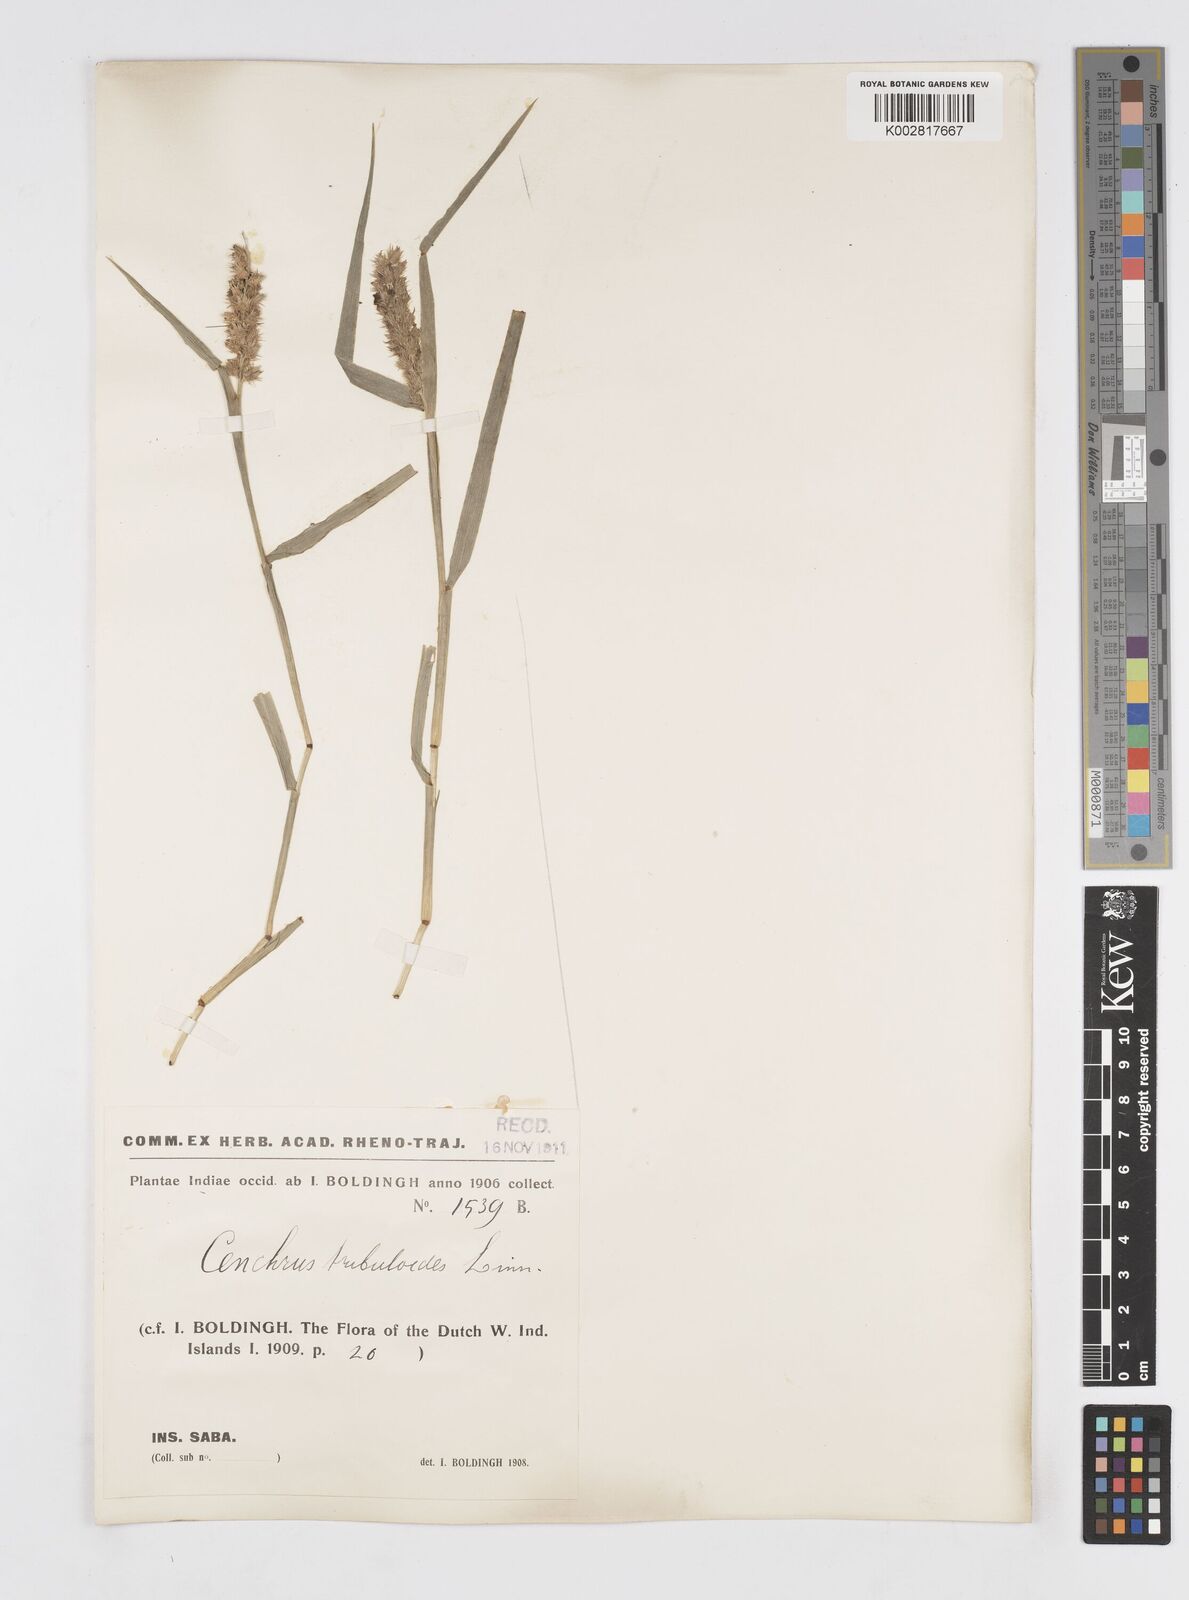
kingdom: Plantae
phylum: Tracheophyta
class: Liliopsida
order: Poales
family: Poaceae
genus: Cenchrus
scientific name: Cenchrus
